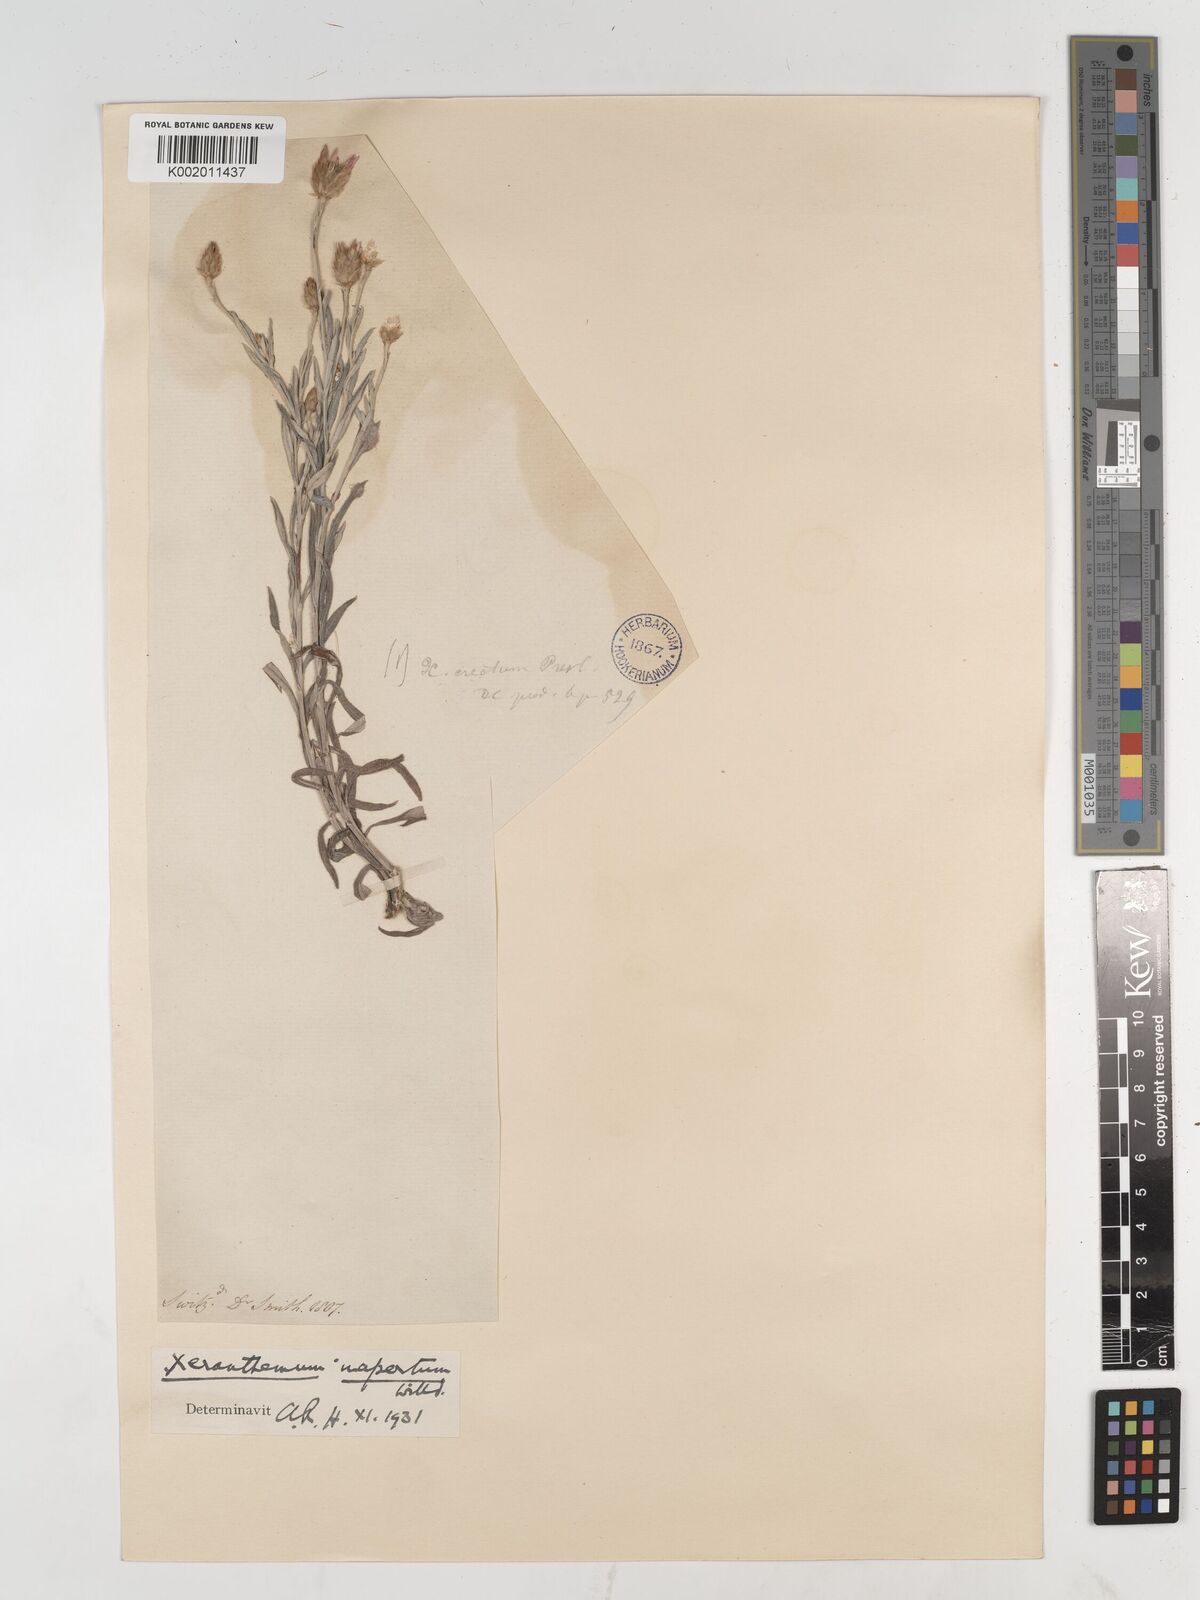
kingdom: Plantae
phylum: Tracheophyta
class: Magnoliopsida
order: Asterales
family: Asteraceae
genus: Xeranthemum
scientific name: Xeranthemum
